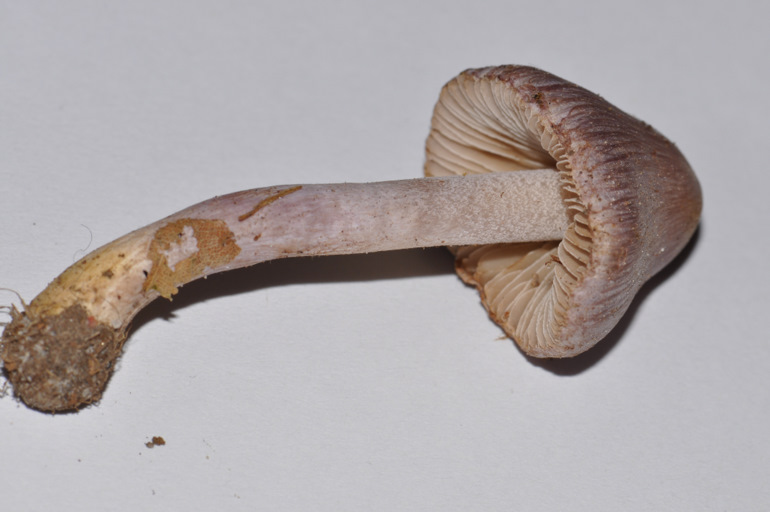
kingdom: Fungi
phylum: Basidiomycota
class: Agaricomycetes
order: Agaricales
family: Inocybaceae
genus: Inocybe
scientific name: Inocybe geophylla
